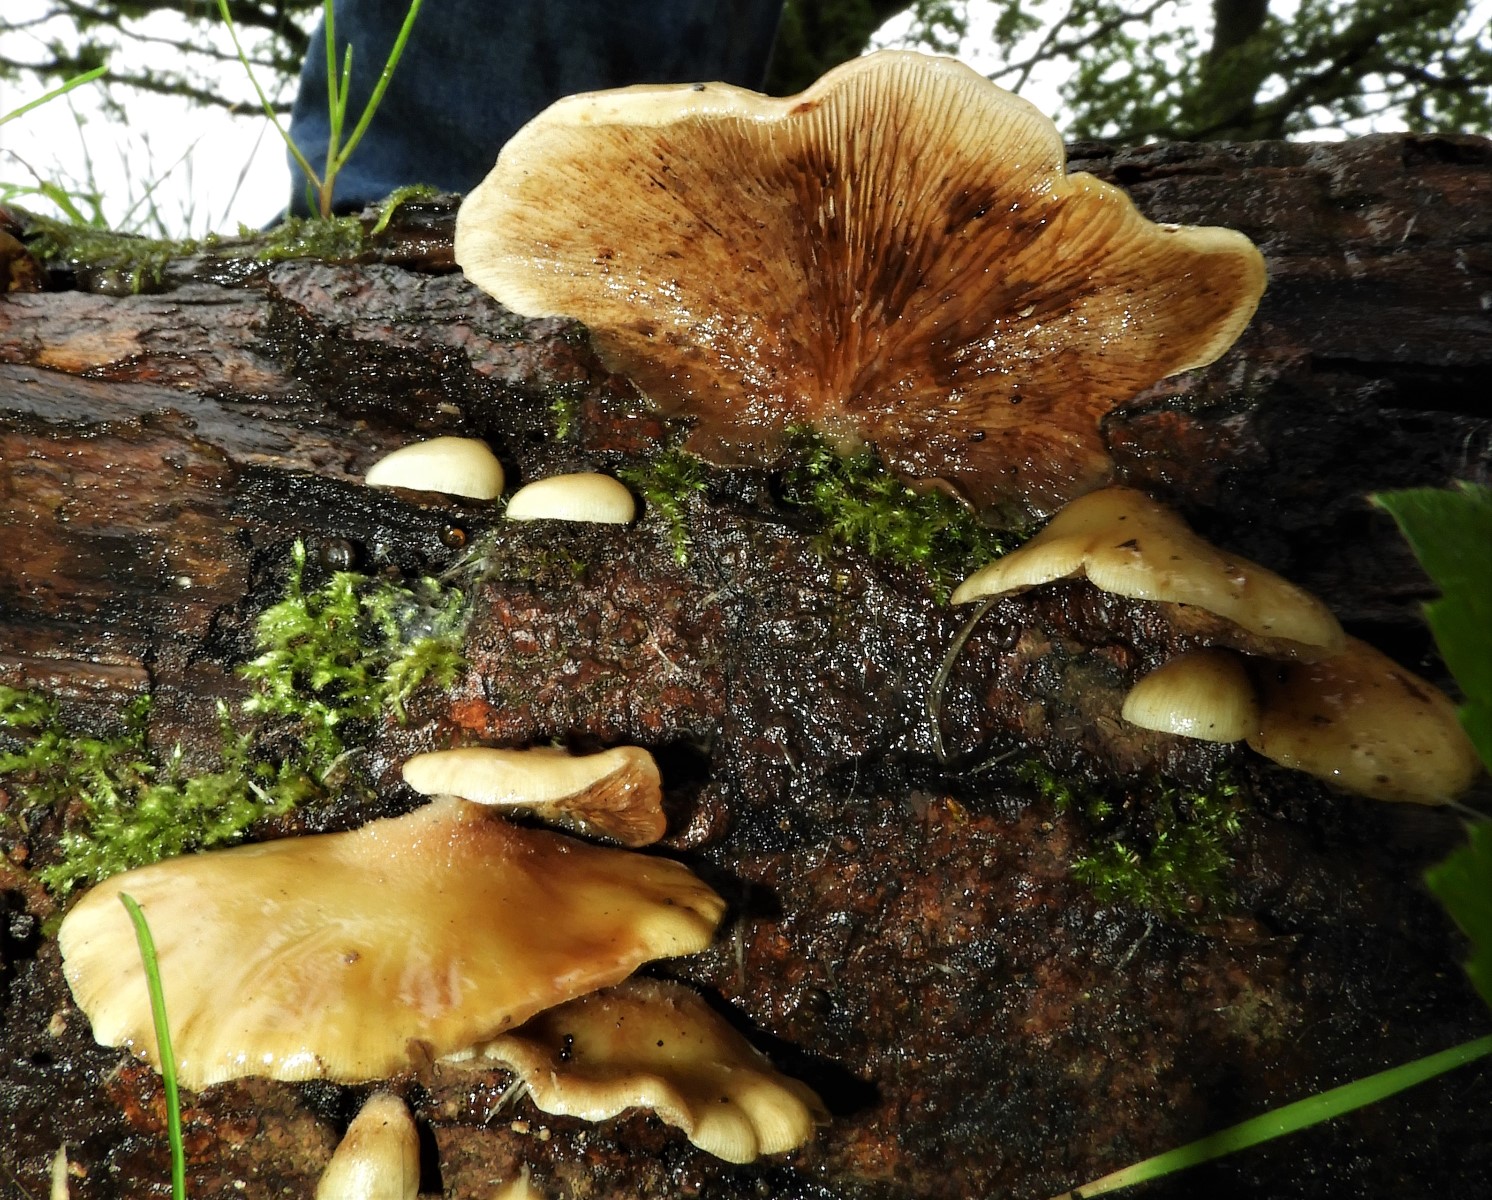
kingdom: Fungi
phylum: Basidiomycota
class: Agaricomycetes
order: Agaricales
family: Crepidotaceae
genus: Crepidotus
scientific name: Crepidotus
